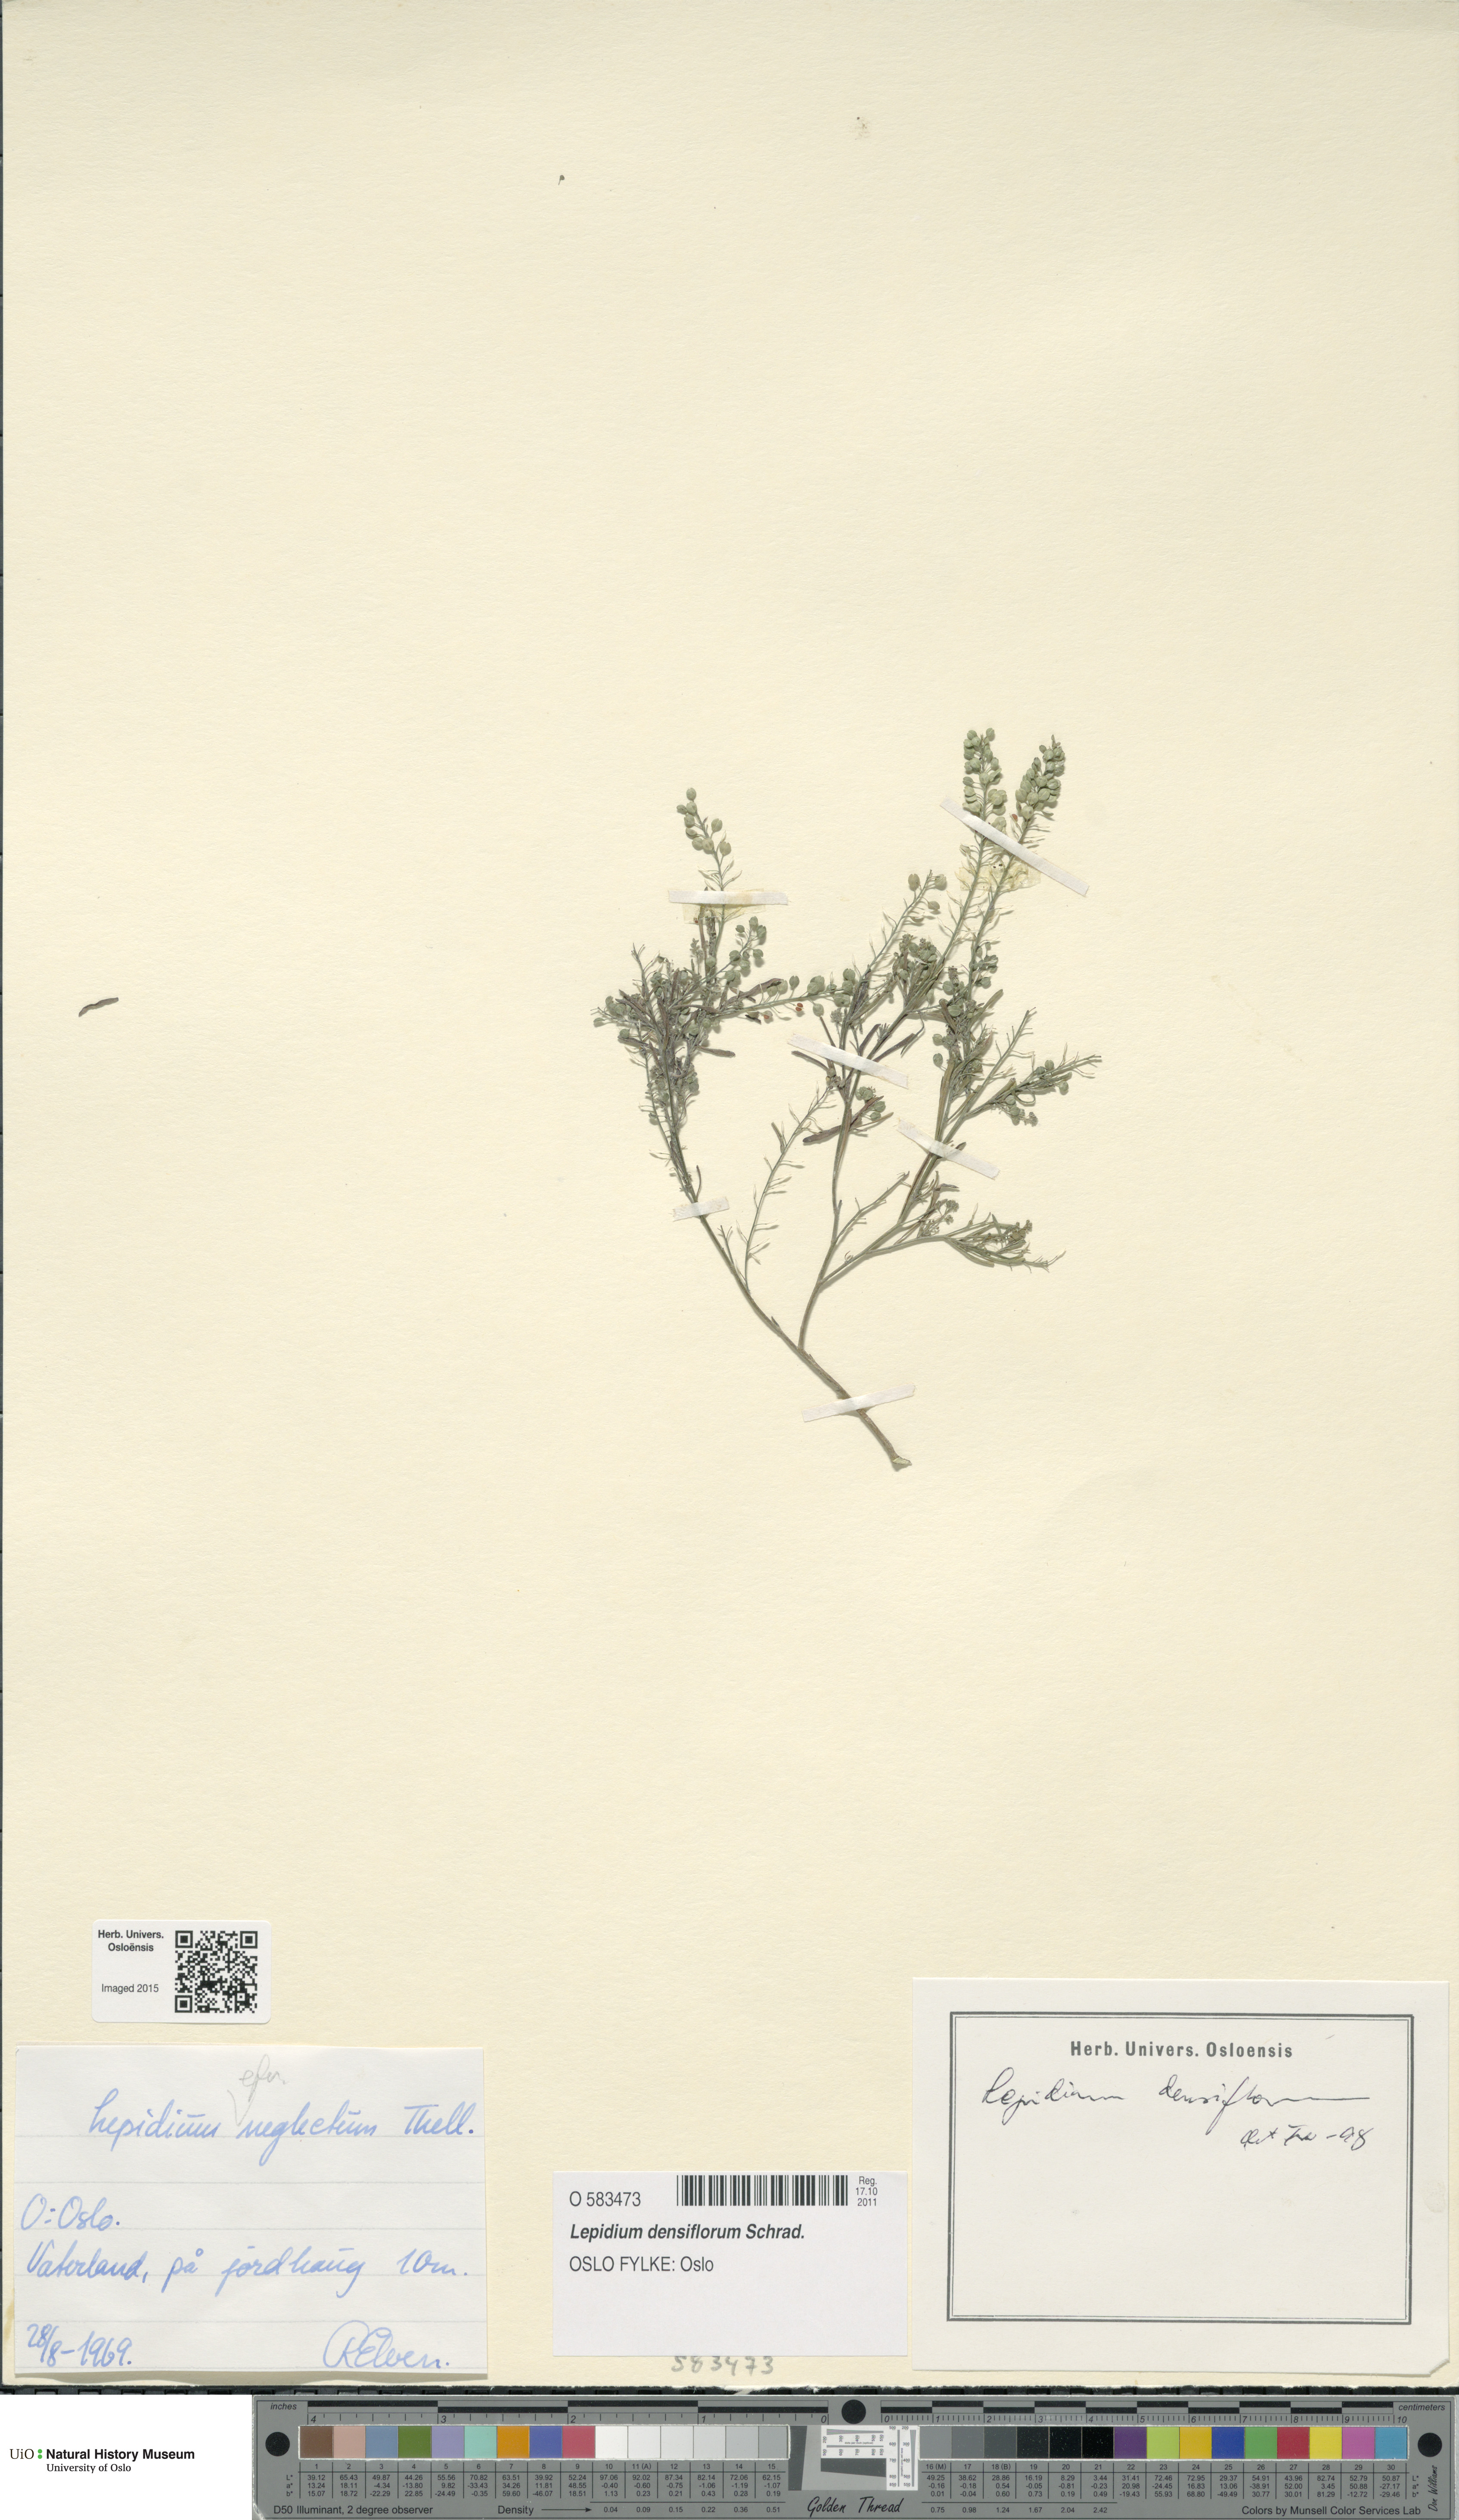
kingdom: Plantae
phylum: Tracheophyta
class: Magnoliopsida
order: Brassicales
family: Brassicaceae
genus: Lepidium
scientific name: Lepidium densiflorum
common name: Miner's pepperwort
